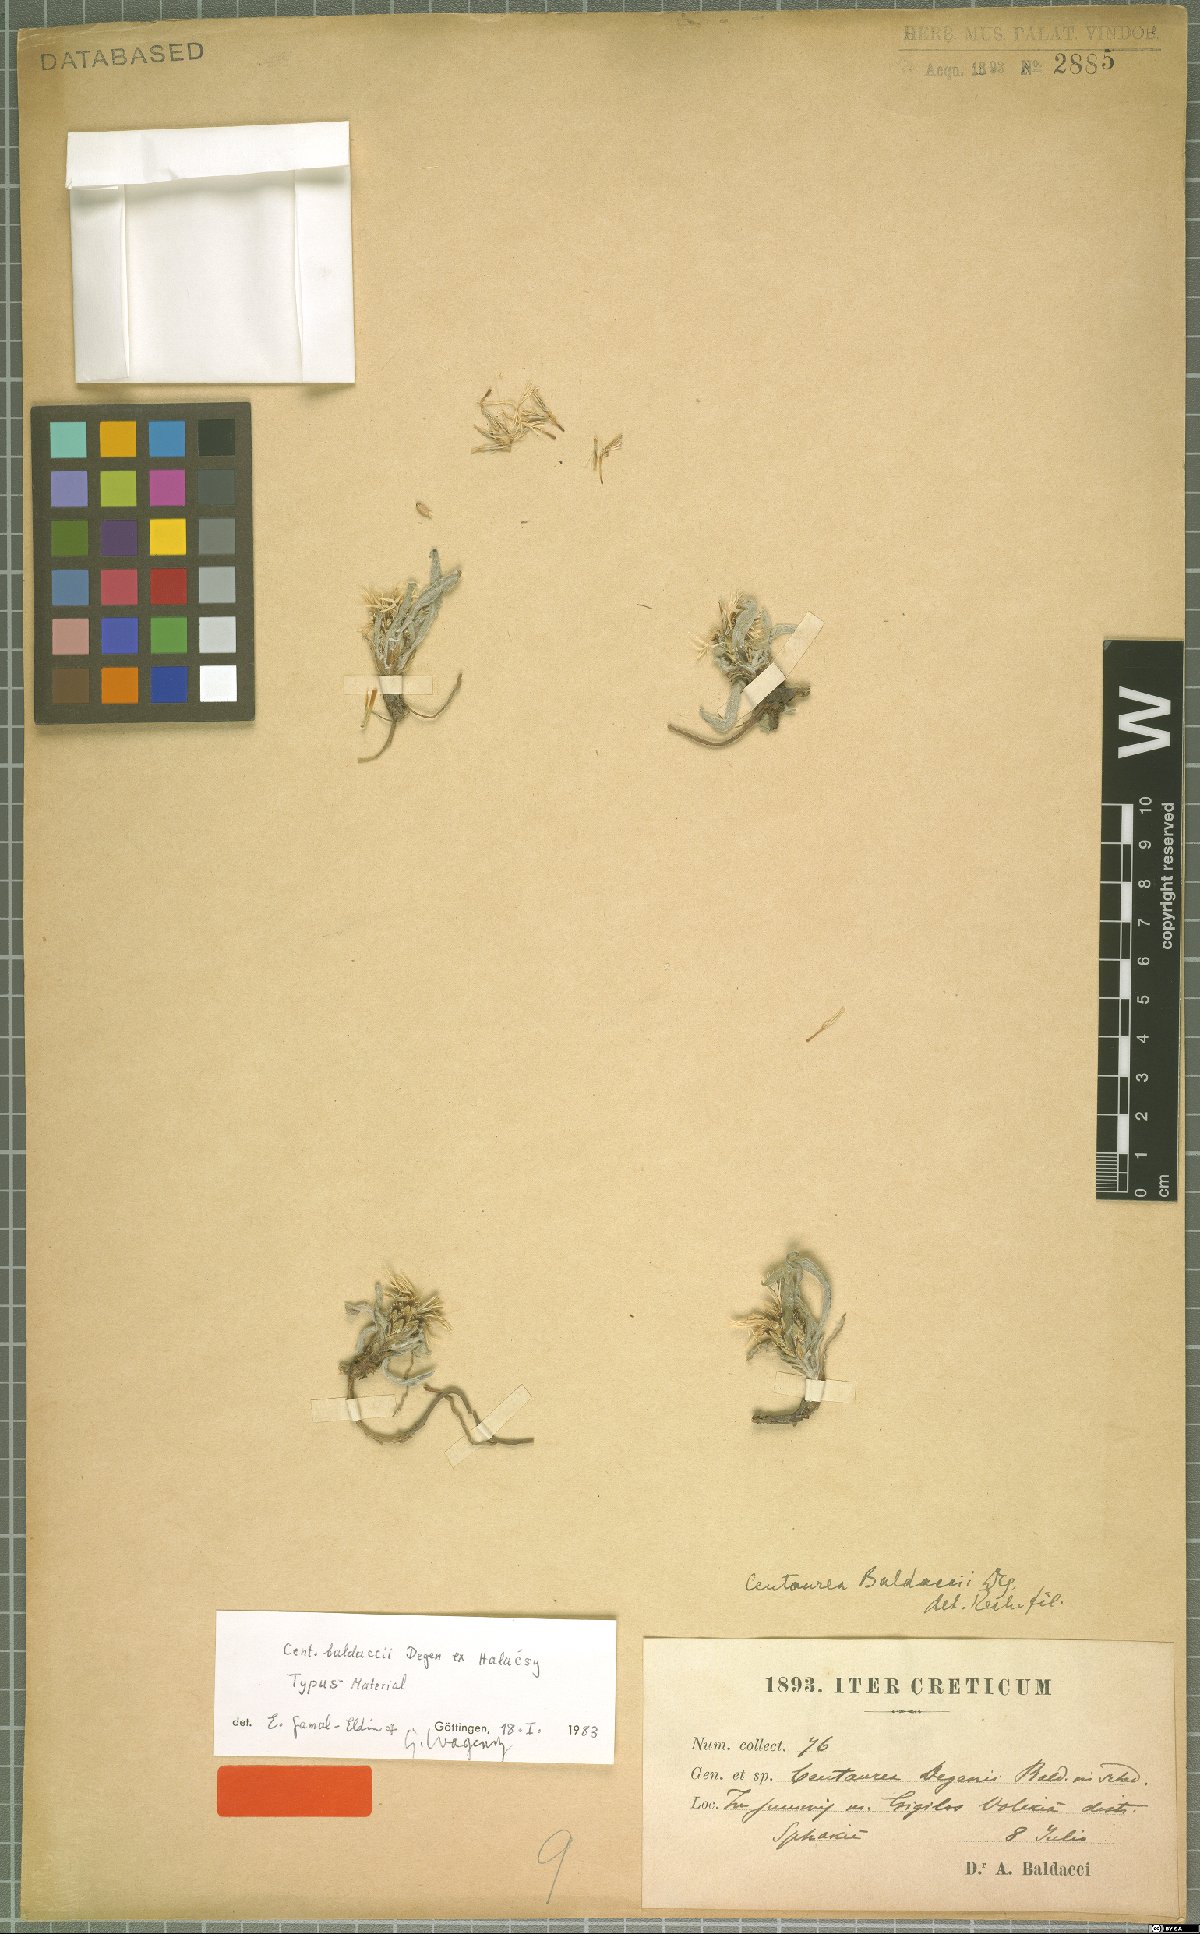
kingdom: Plantae
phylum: Tracheophyta
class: Magnoliopsida
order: Asterales
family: Asteraceae
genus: Centaurea
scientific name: Centaurea baldaccii
